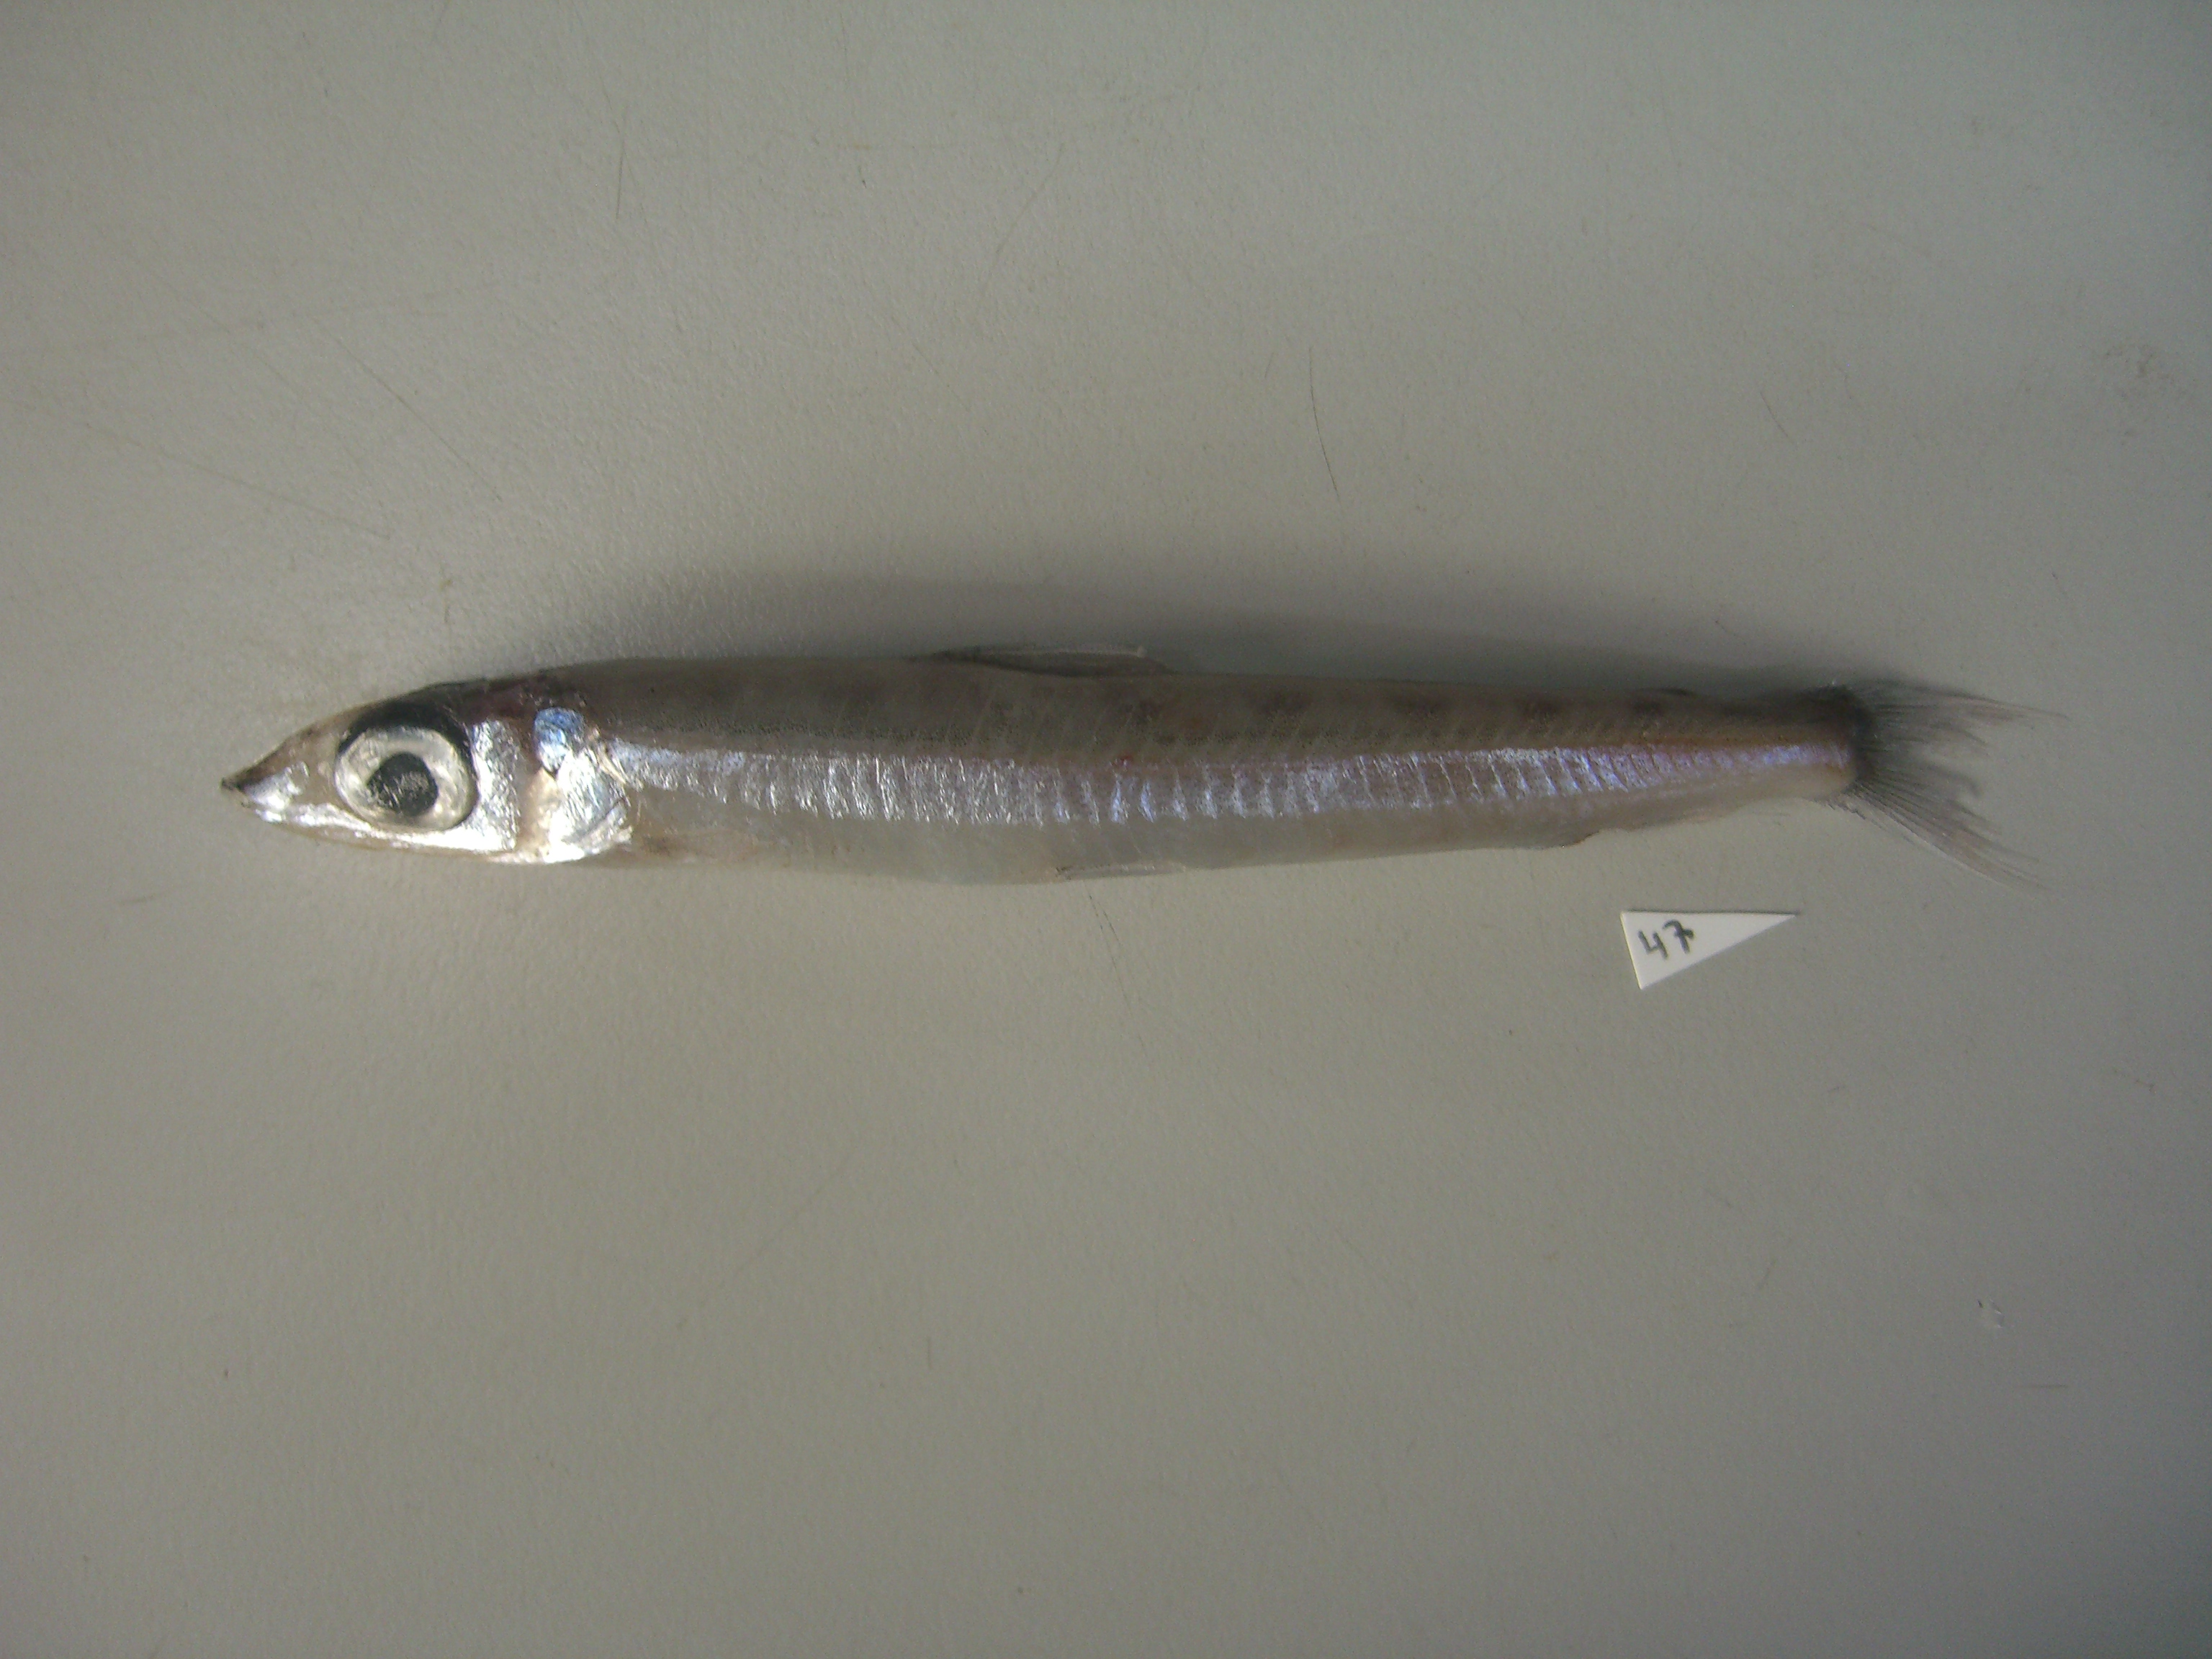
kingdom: Animalia
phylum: Chordata
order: Osmeriformes
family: Argentinidae
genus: Argentina
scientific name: Argentina kagoshimae
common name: Smallmouth argentine
